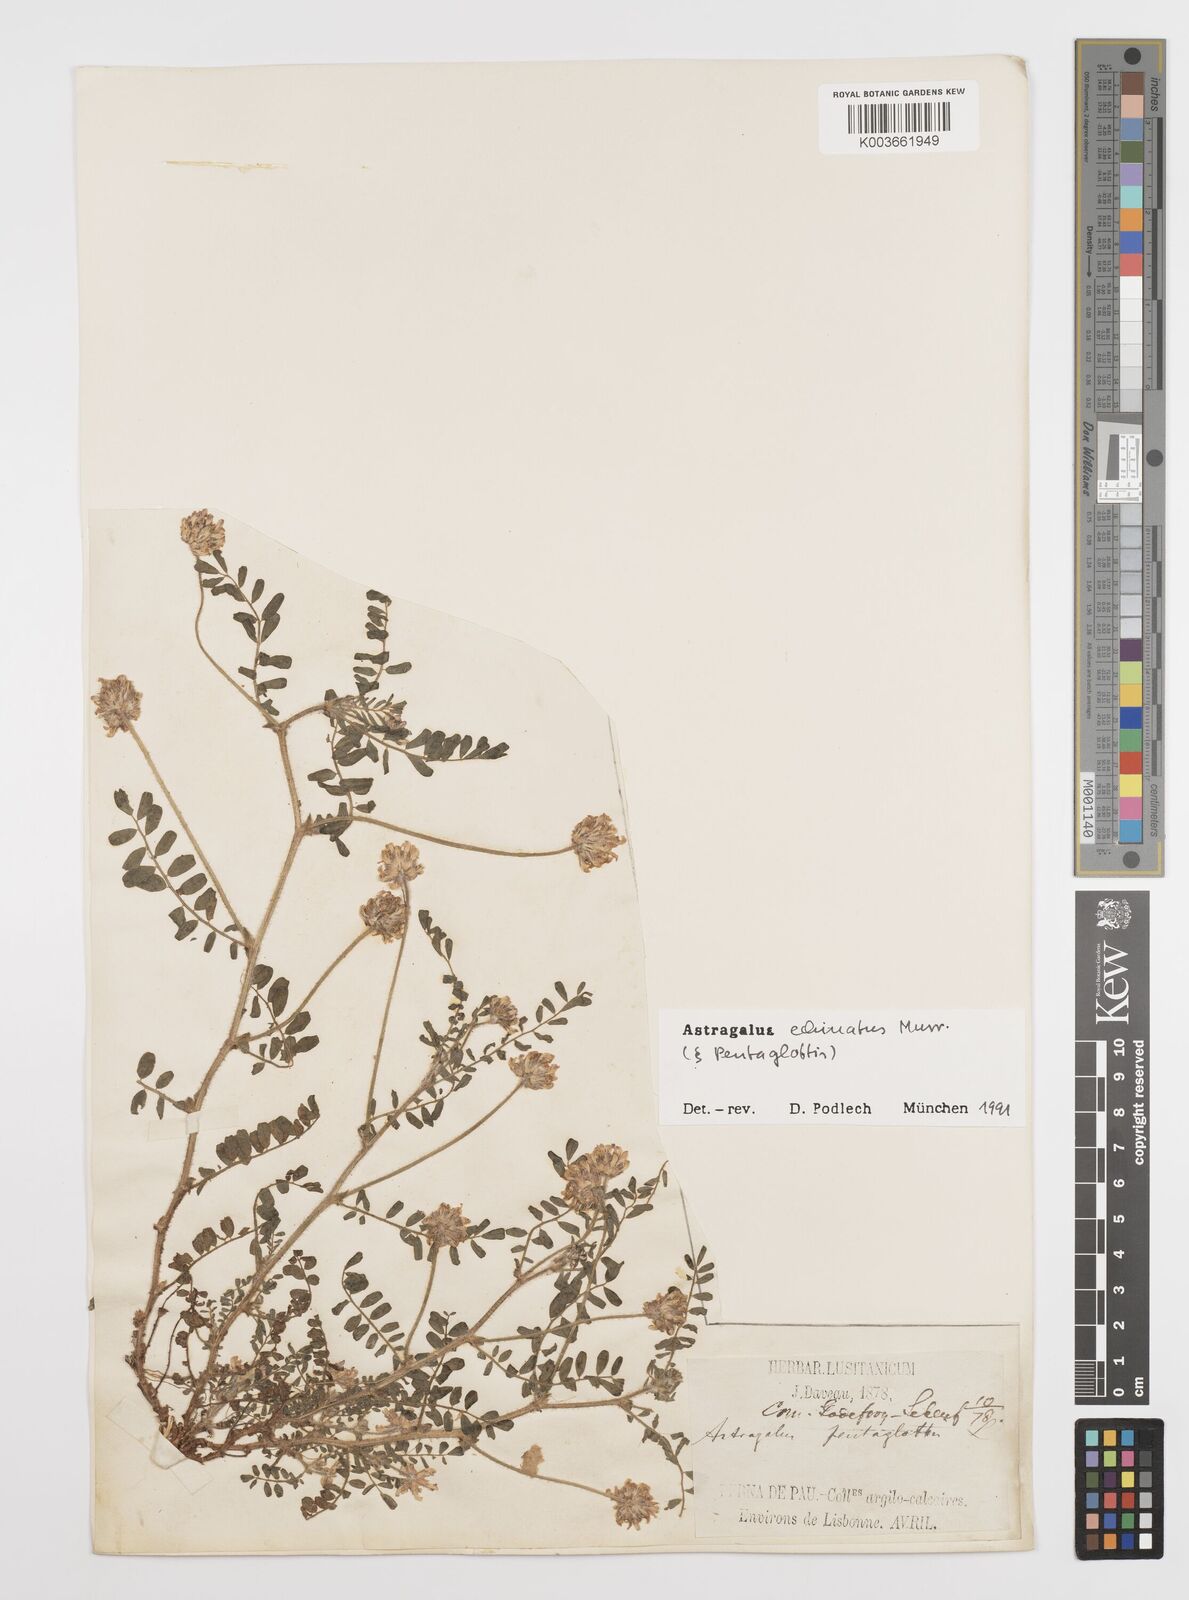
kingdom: Plantae
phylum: Tracheophyta
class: Magnoliopsida
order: Fabales
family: Fabaceae
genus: Astragalus
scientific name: Astragalus echinatus
